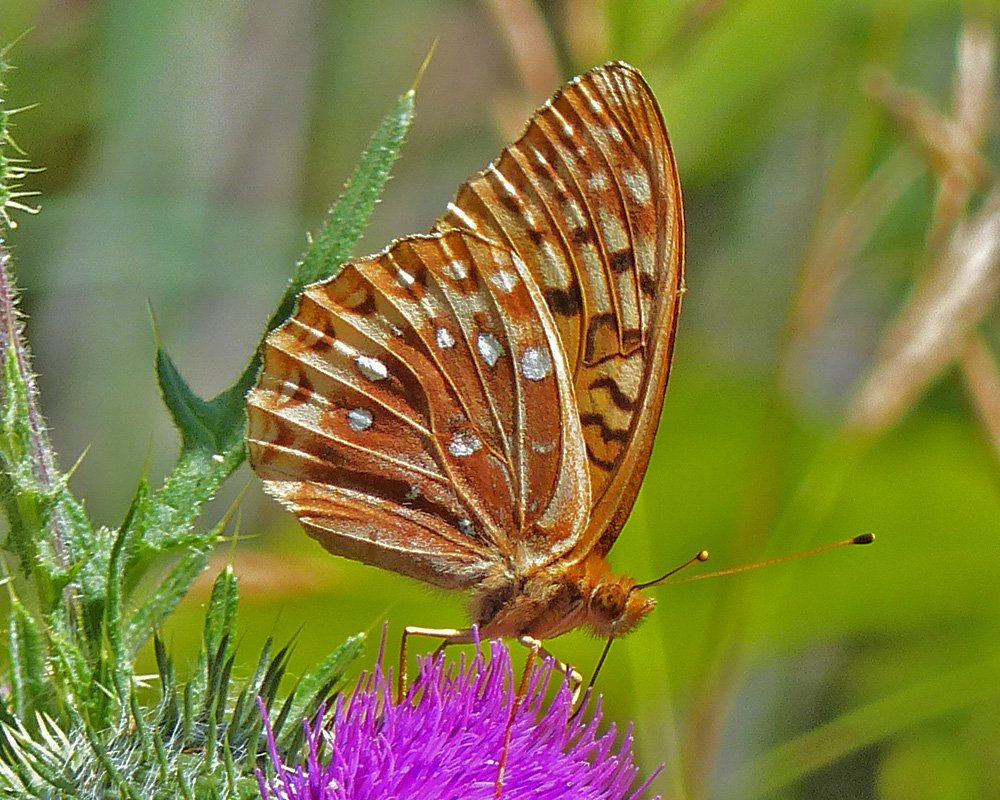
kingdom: Animalia
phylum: Arthropoda
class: Insecta
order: Lepidoptera
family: Nymphalidae
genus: Speyeria
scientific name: Speyeria cybele
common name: Great Spangled Fritillary
